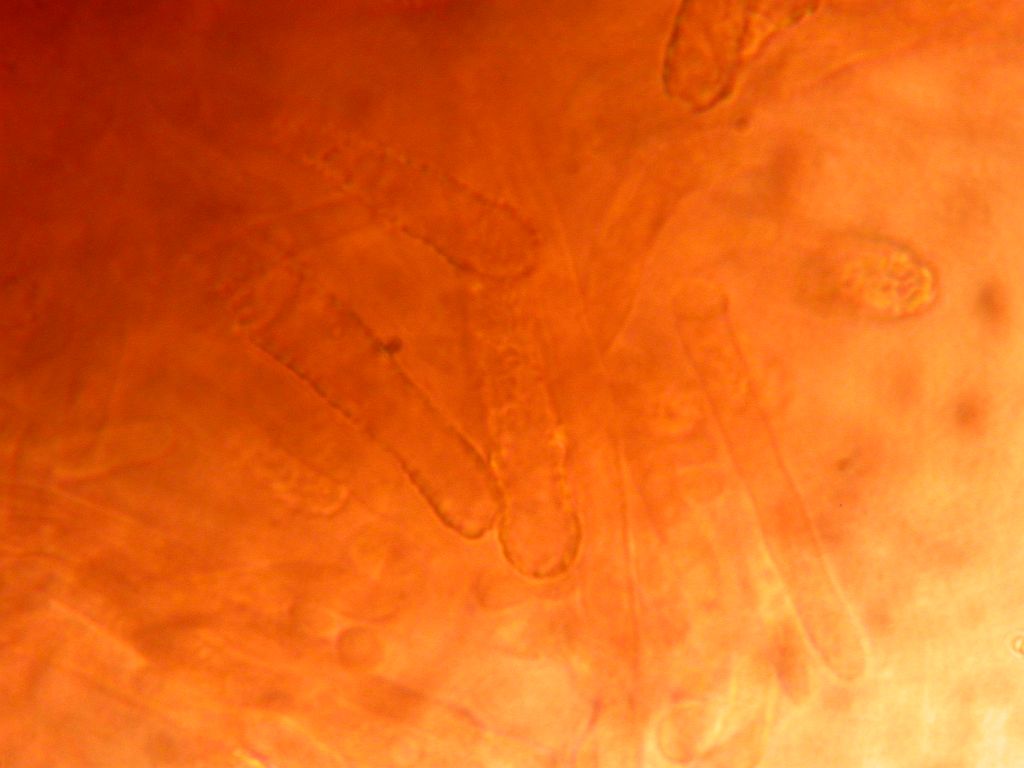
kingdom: Fungi
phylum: Basidiomycota
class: Agaricomycetes
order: Polyporales
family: Phanerochaetaceae
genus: Phanerochaete
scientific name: Phanerochaete sordida
